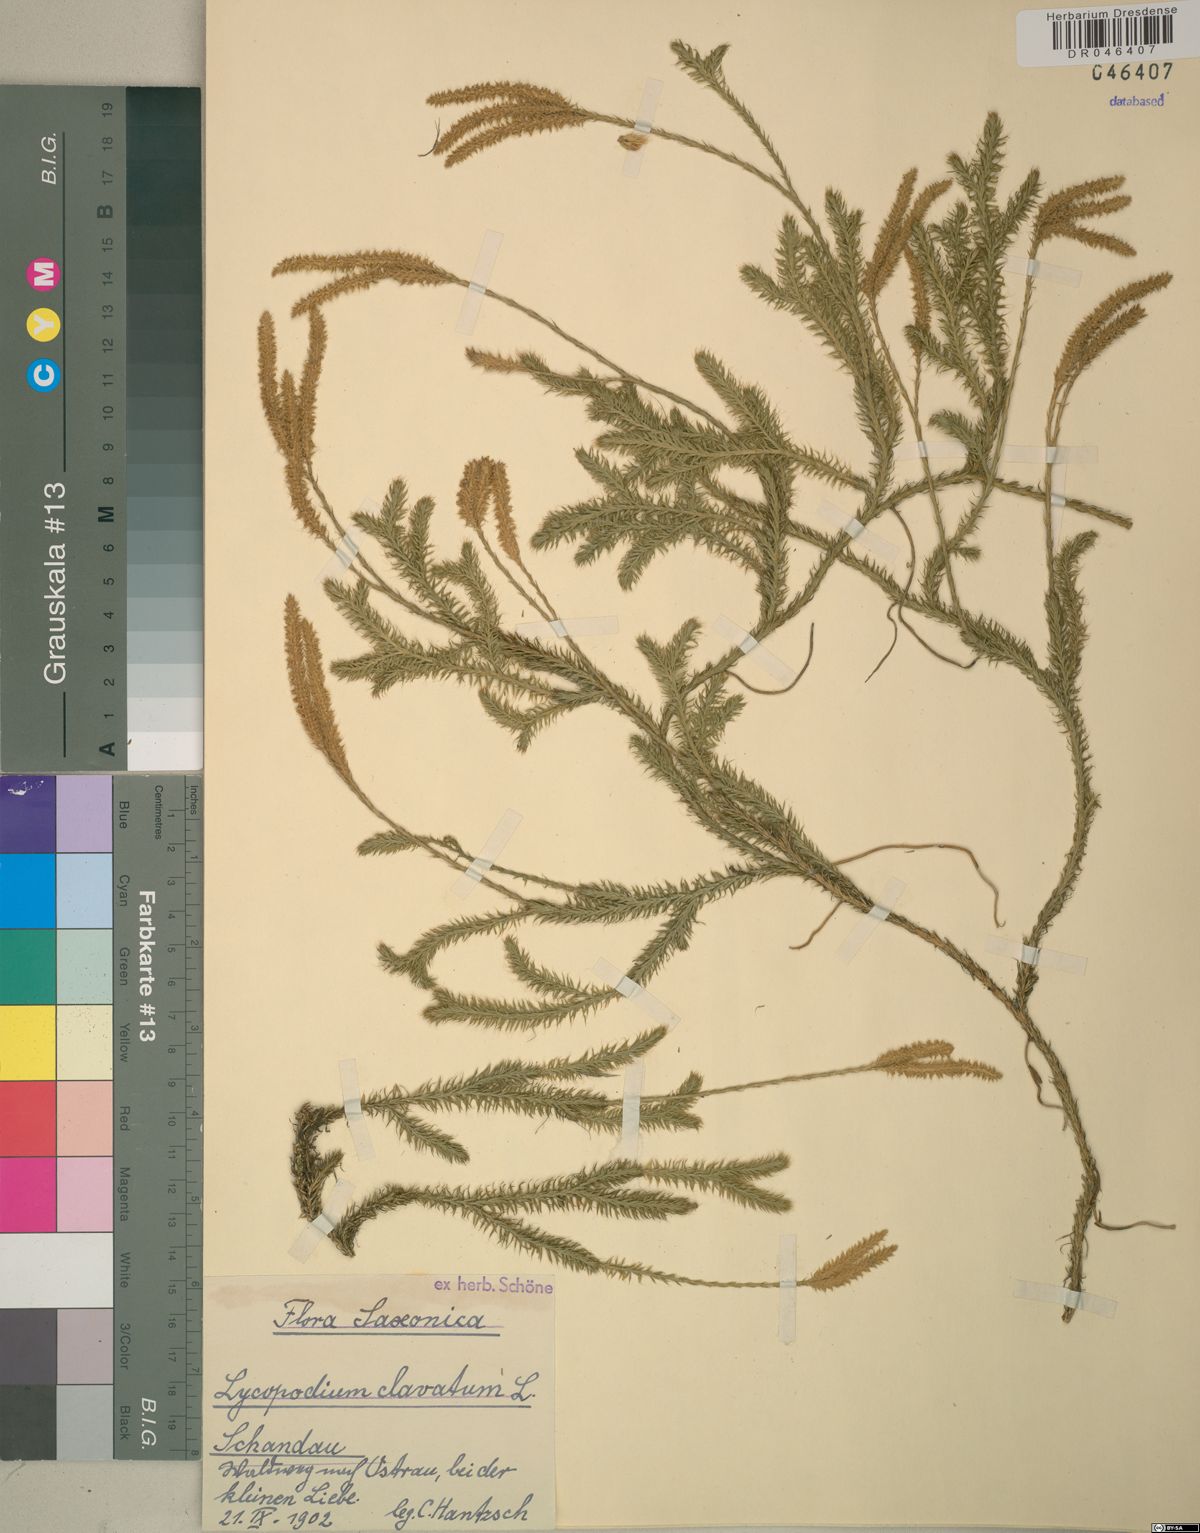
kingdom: Plantae
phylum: Tracheophyta
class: Lycopodiopsida
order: Lycopodiales
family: Lycopodiaceae
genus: Lycopodium
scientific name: Lycopodium clavatum
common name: Stag's-horn clubmoss
